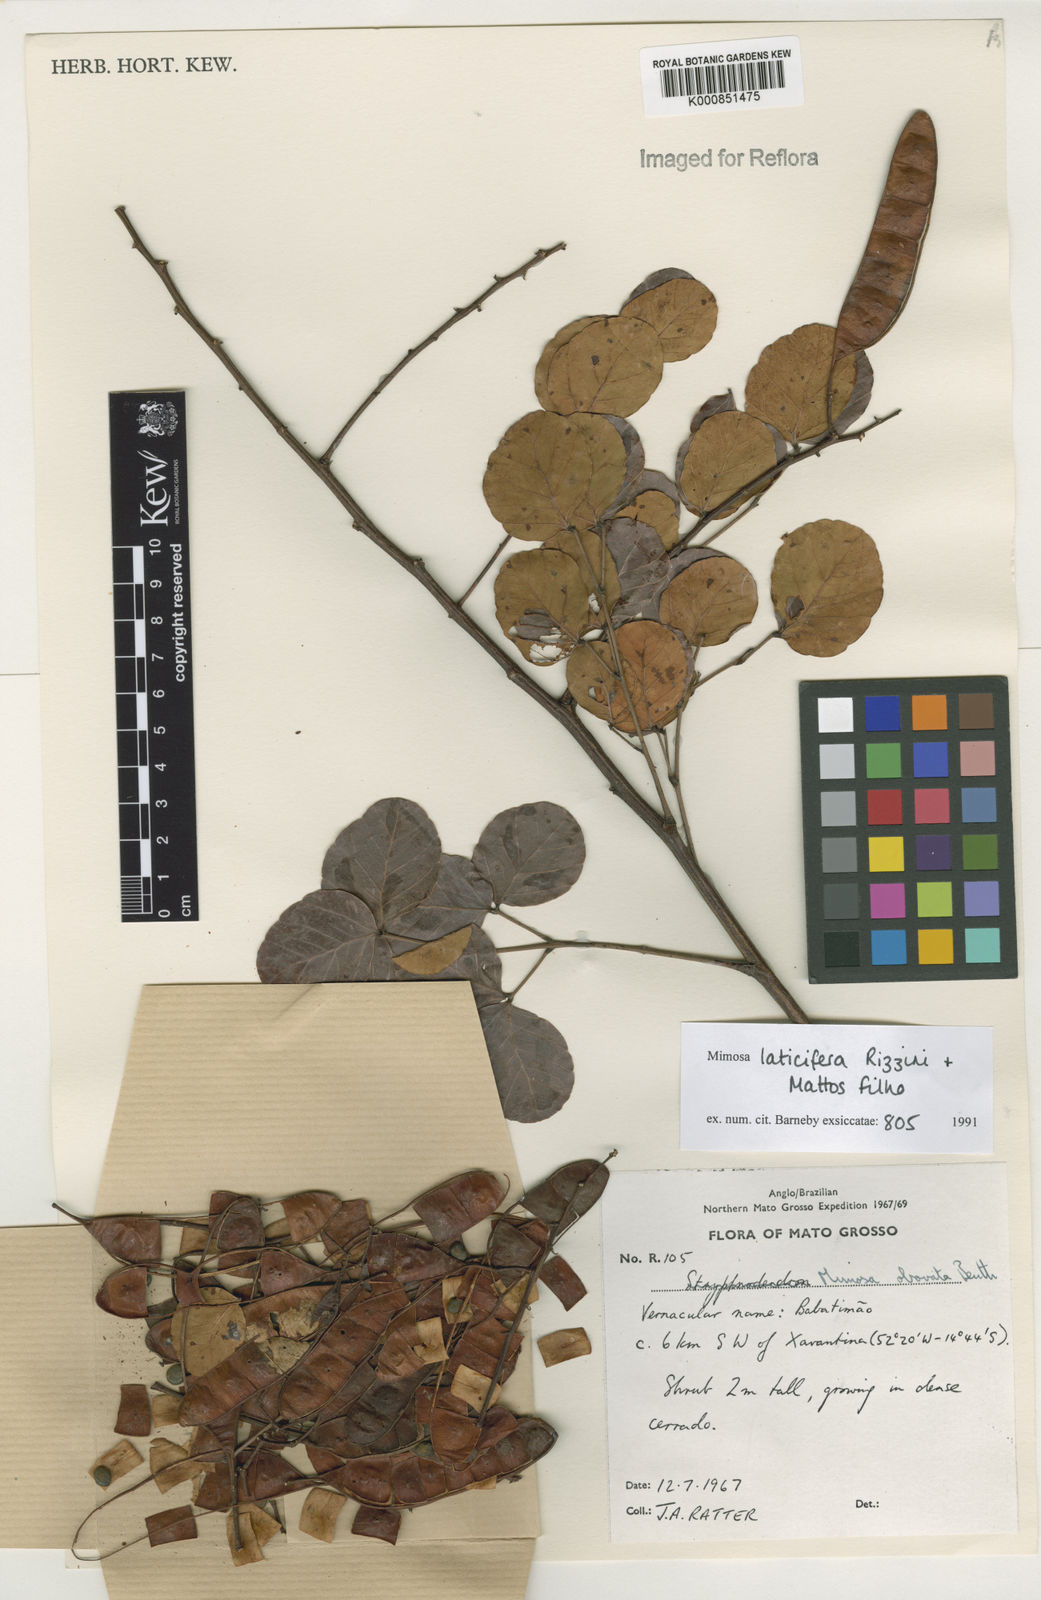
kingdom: Plantae
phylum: Tracheophyta
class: Magnoliopsida
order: Fabales
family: Fabaceae
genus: Mimosa
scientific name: Mimosa laticifera
